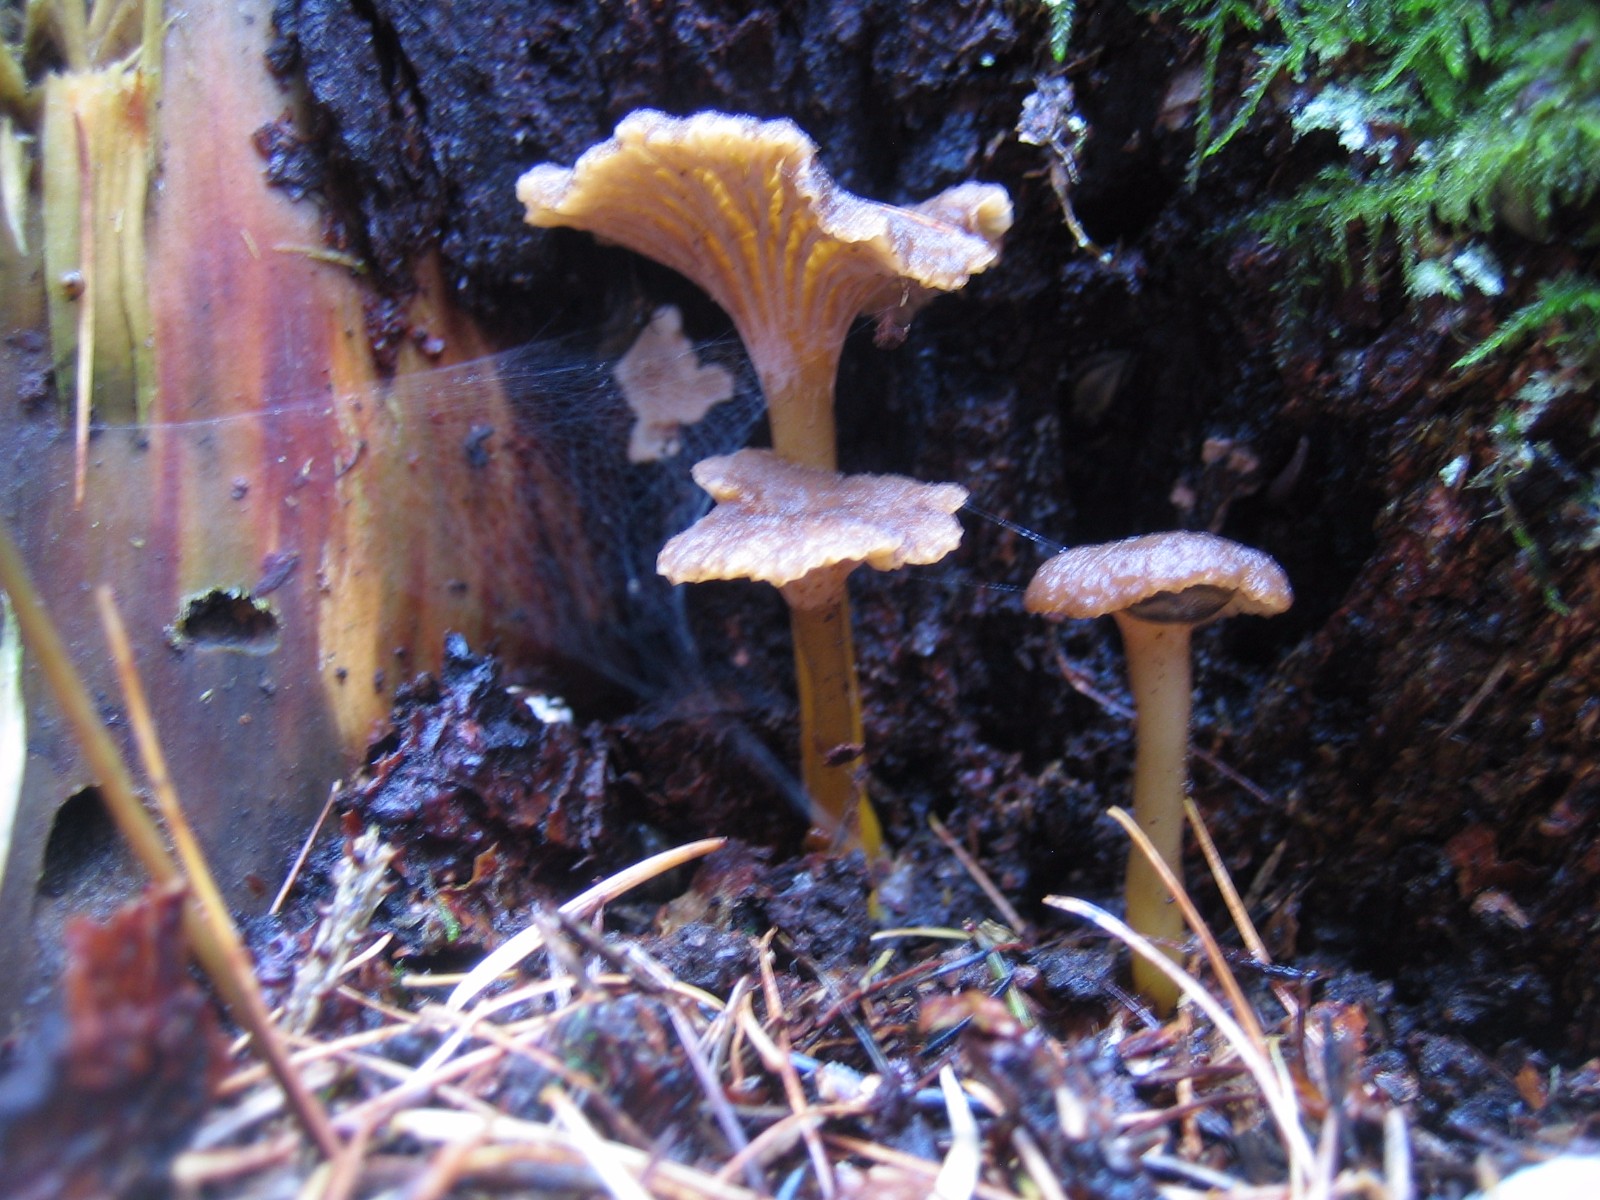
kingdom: Fungi
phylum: Basidiomycota
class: Agaricomycetes
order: Cantharellales
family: Hydnaceae
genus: Craterellus
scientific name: Craterellus tubaeformis
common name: tragt-kantarel
